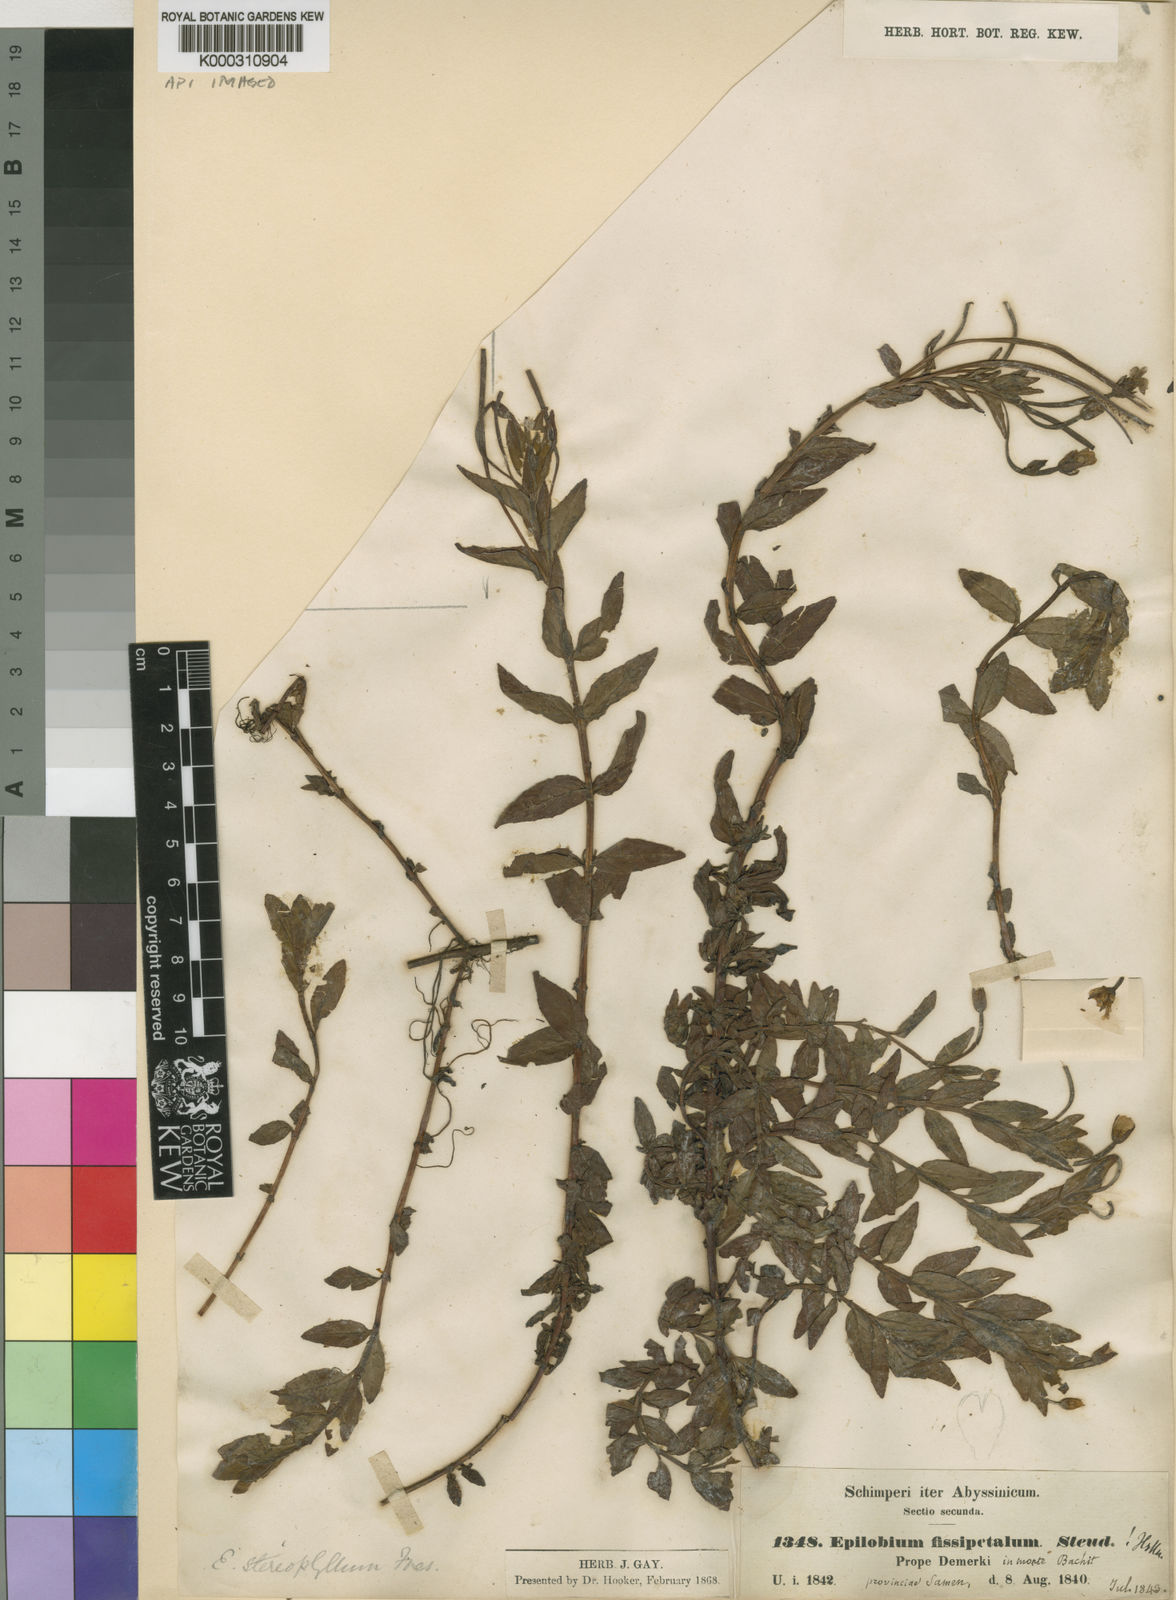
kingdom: Plantae
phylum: Tracheophyta
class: Magnoliopsida
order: Myrtales
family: Onagraceae
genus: Epilobium
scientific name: Epilobium stereophyllum
